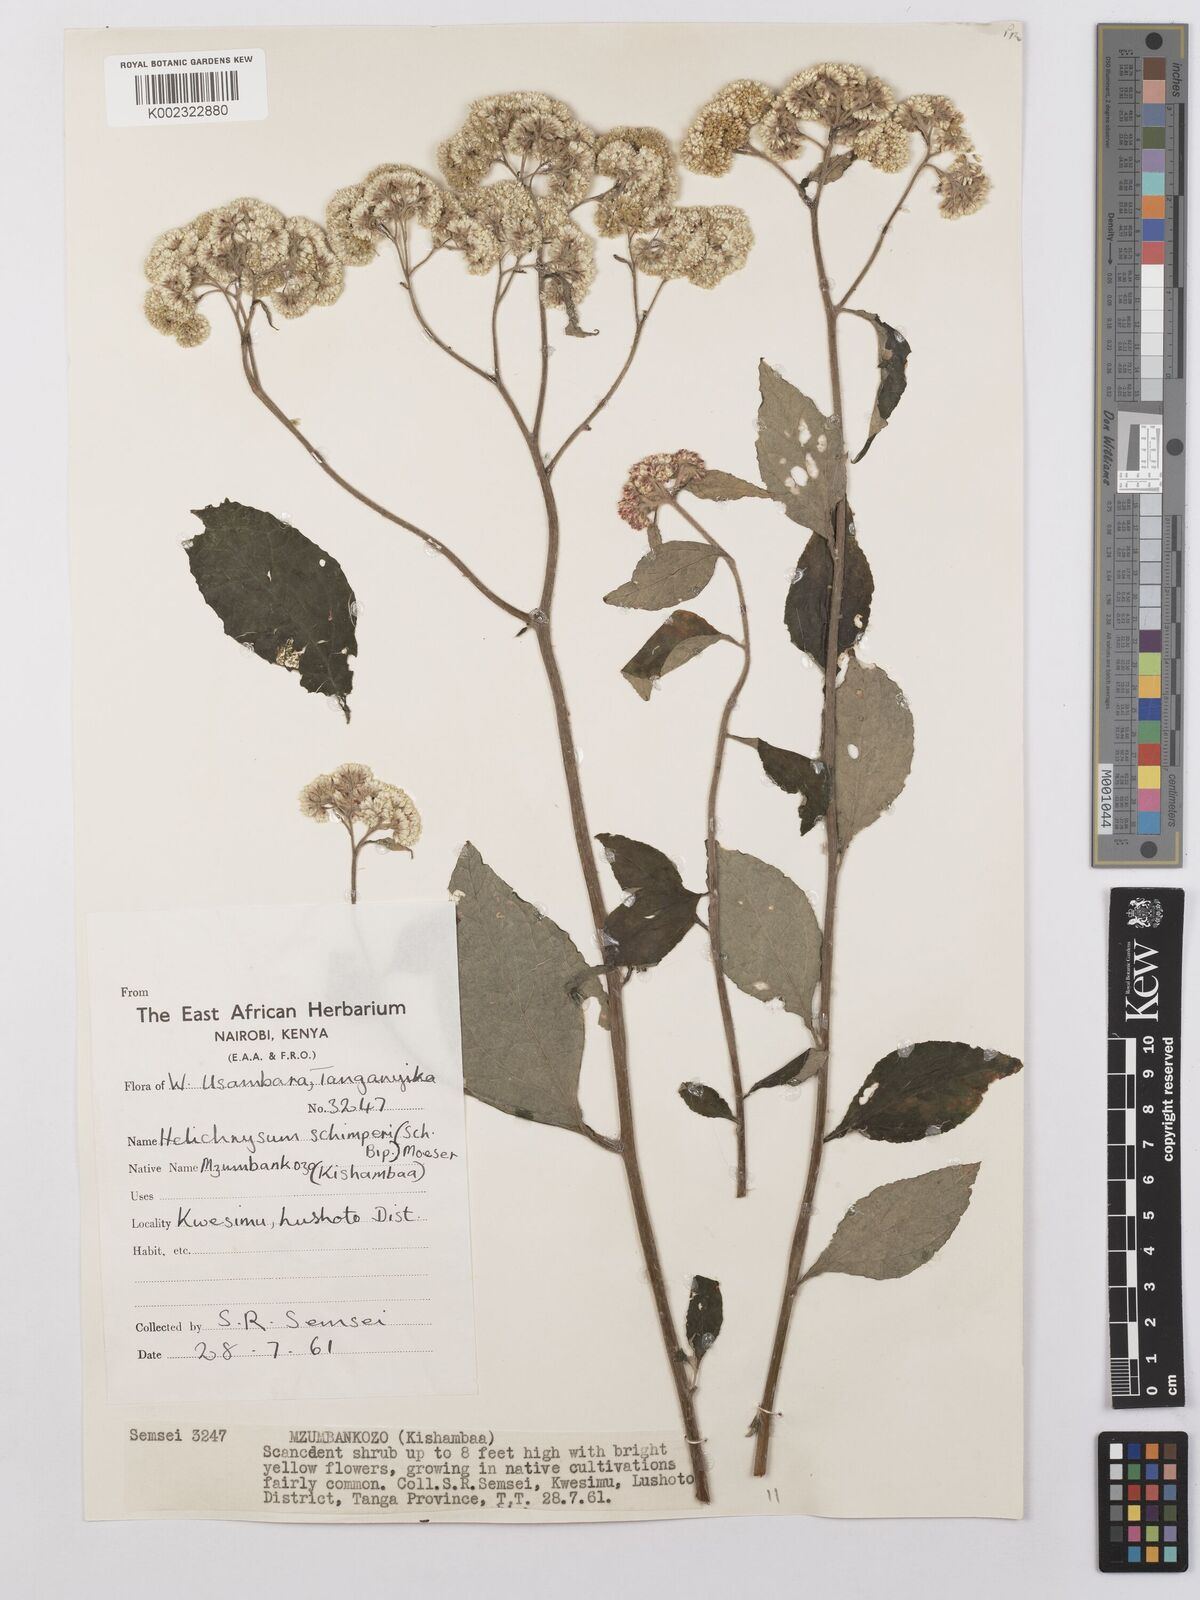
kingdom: Plantae
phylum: Tracheophyta
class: Magnoliopsida
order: Asterales
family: Asteraceae
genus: Helichrysum
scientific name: Helichrysum schimperi
